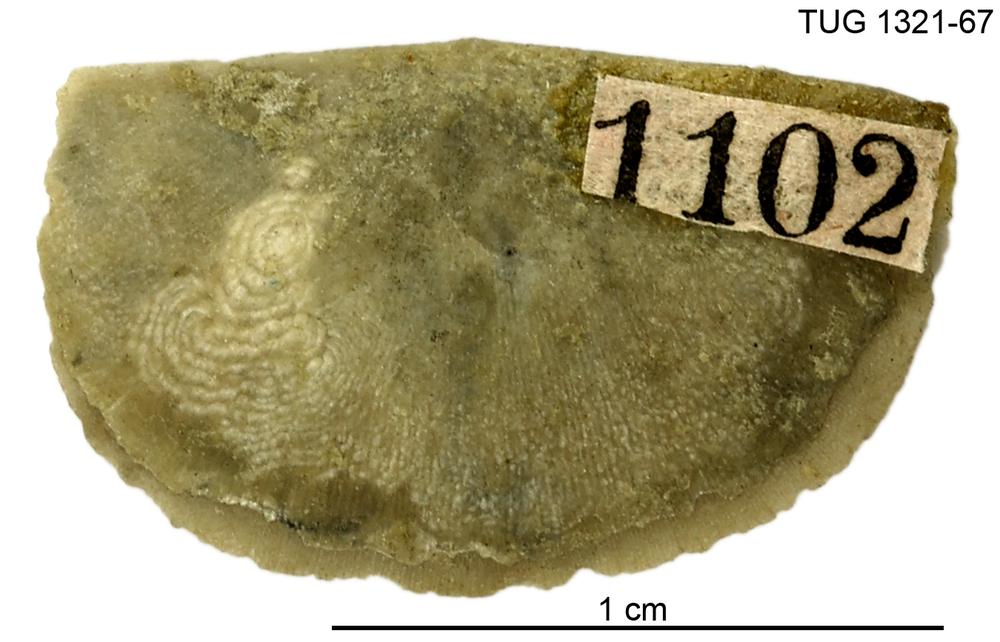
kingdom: Animalia
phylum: Brachiopoda
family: Sowerbyellidae
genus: Sowerbyella
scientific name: Sowerbyella
